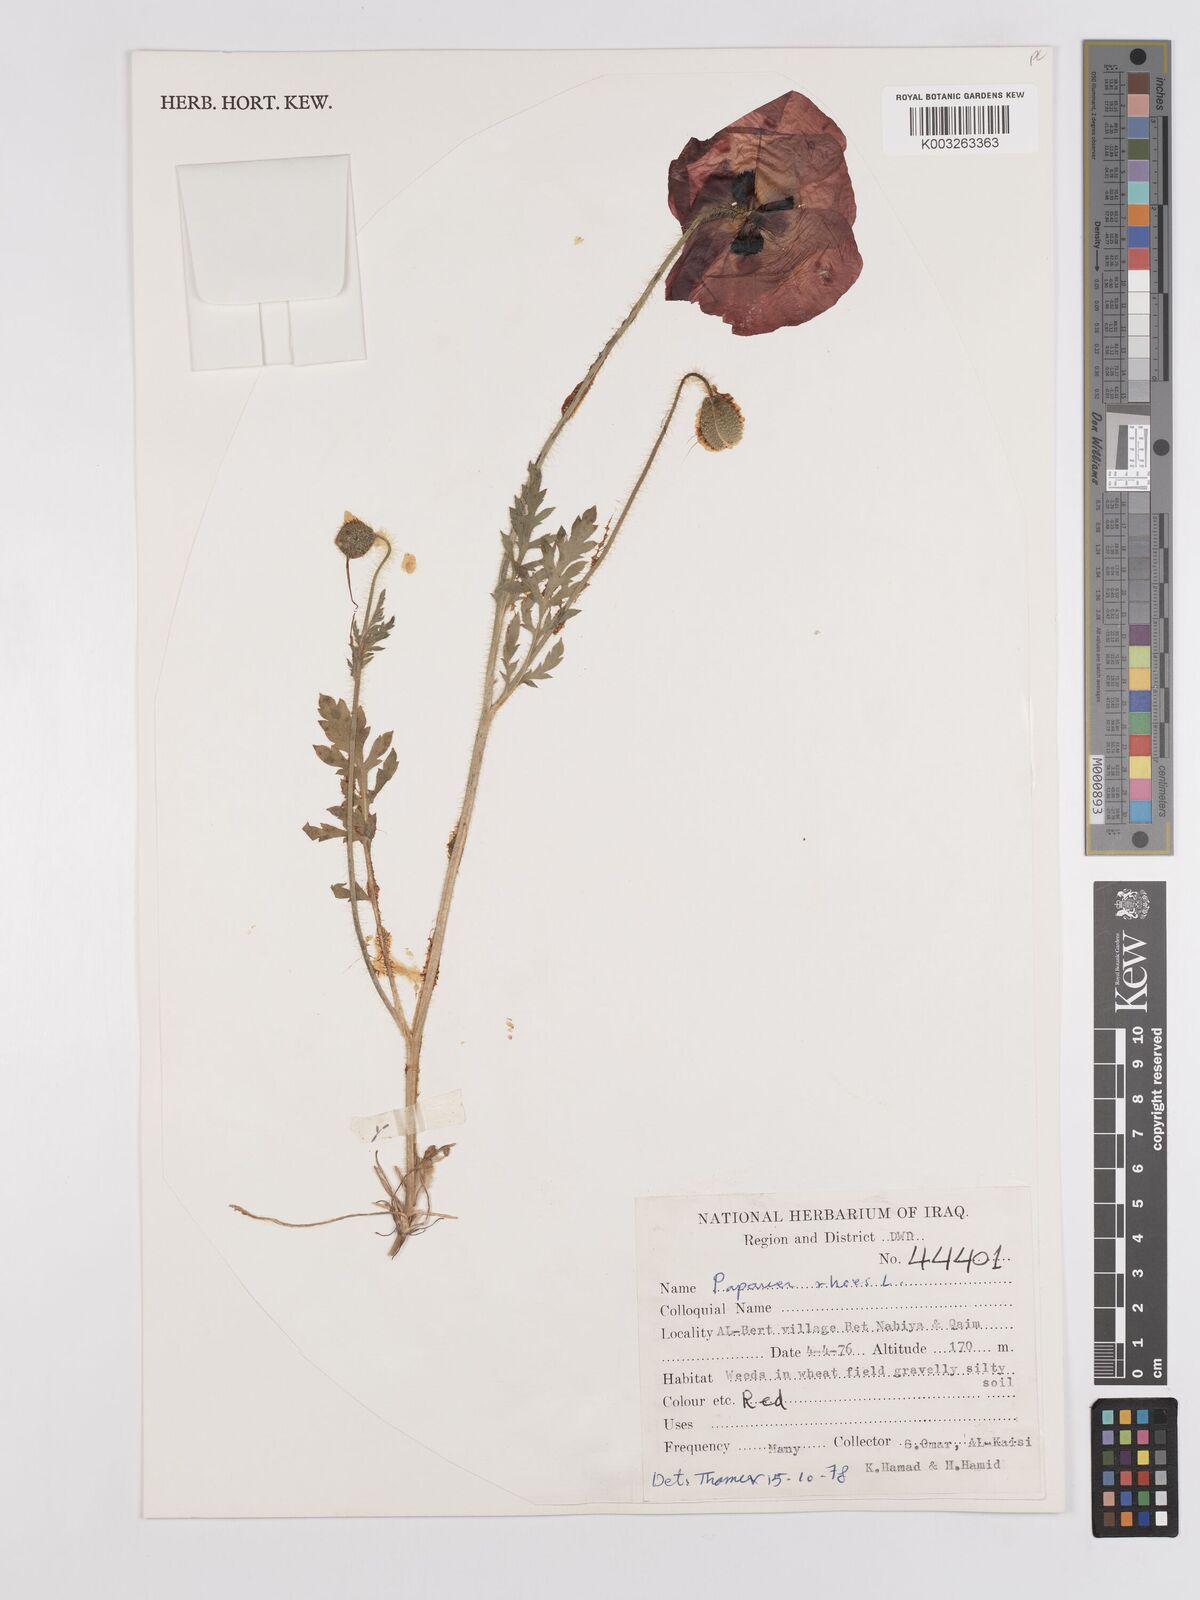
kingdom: Plantae
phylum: Tracheophyta
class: Magnoliopsida
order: Ranunculales
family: Papaveraceae
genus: Papaver
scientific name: Papaver rhoeas
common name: Corn poppy
